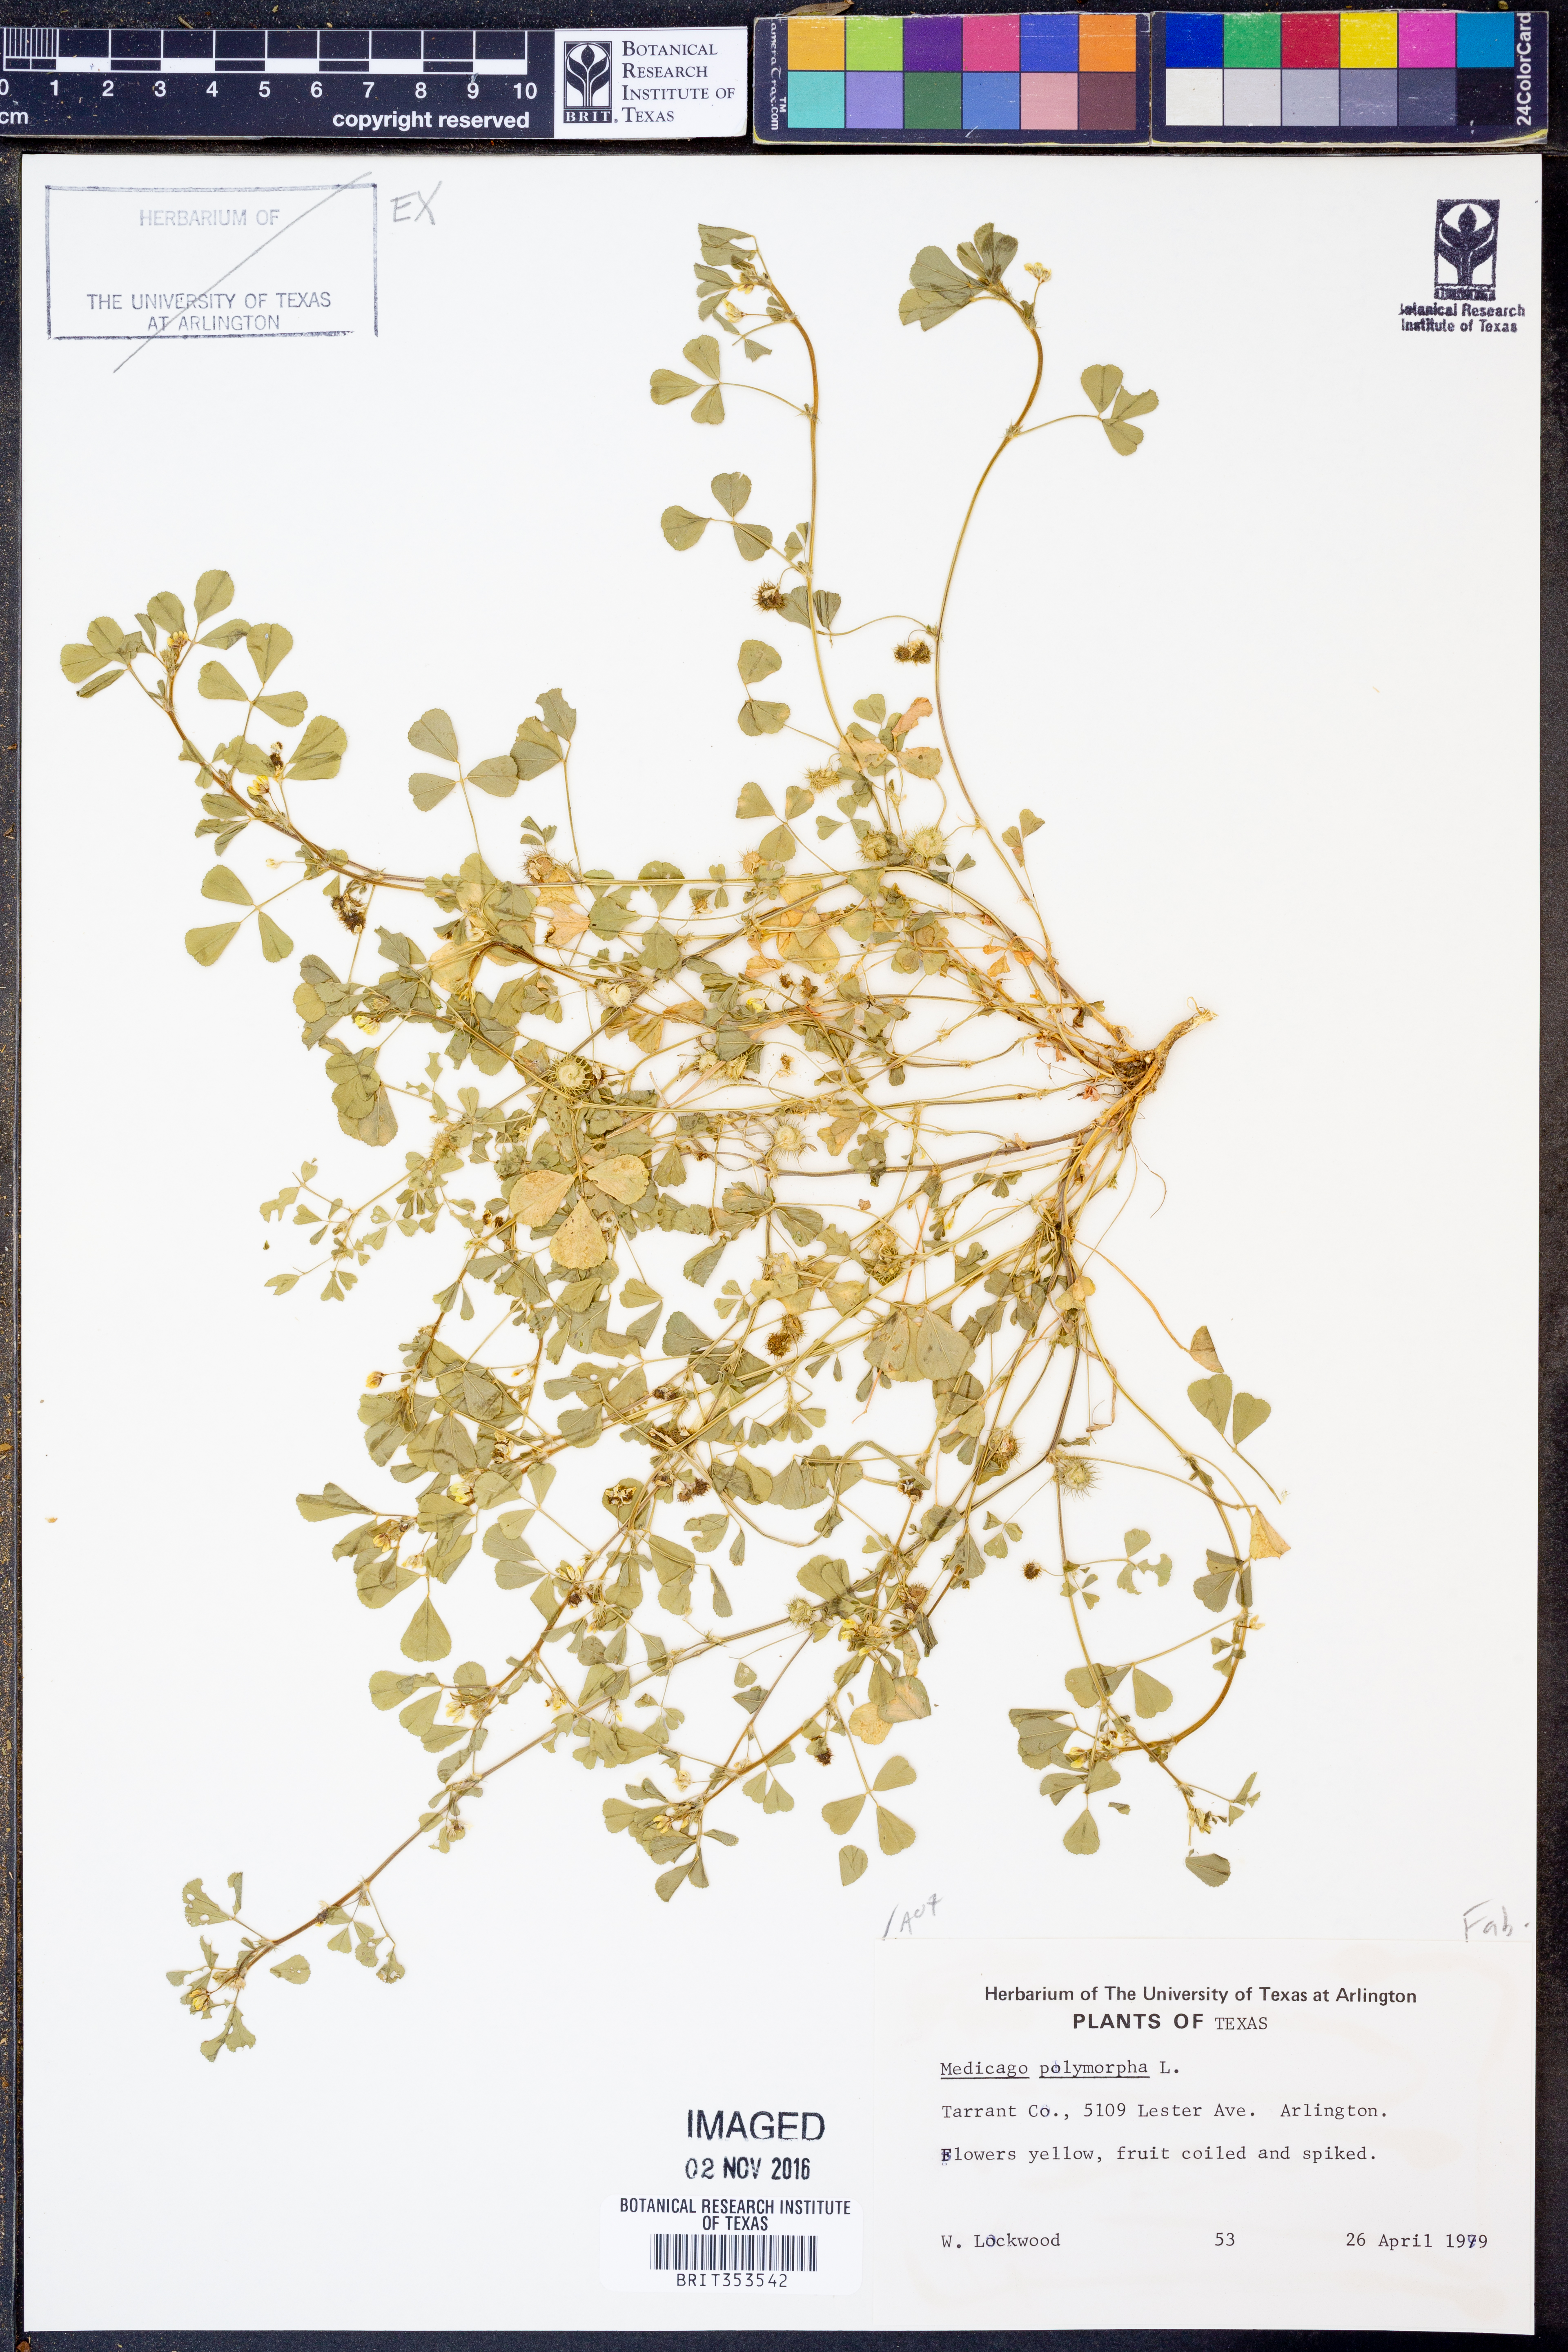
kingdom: Plantae
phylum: Tracheophyta
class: Magnoliopsida
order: Fabales
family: Fabaceae
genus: Medicago
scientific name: Medicago polymorpha
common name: Burclover
